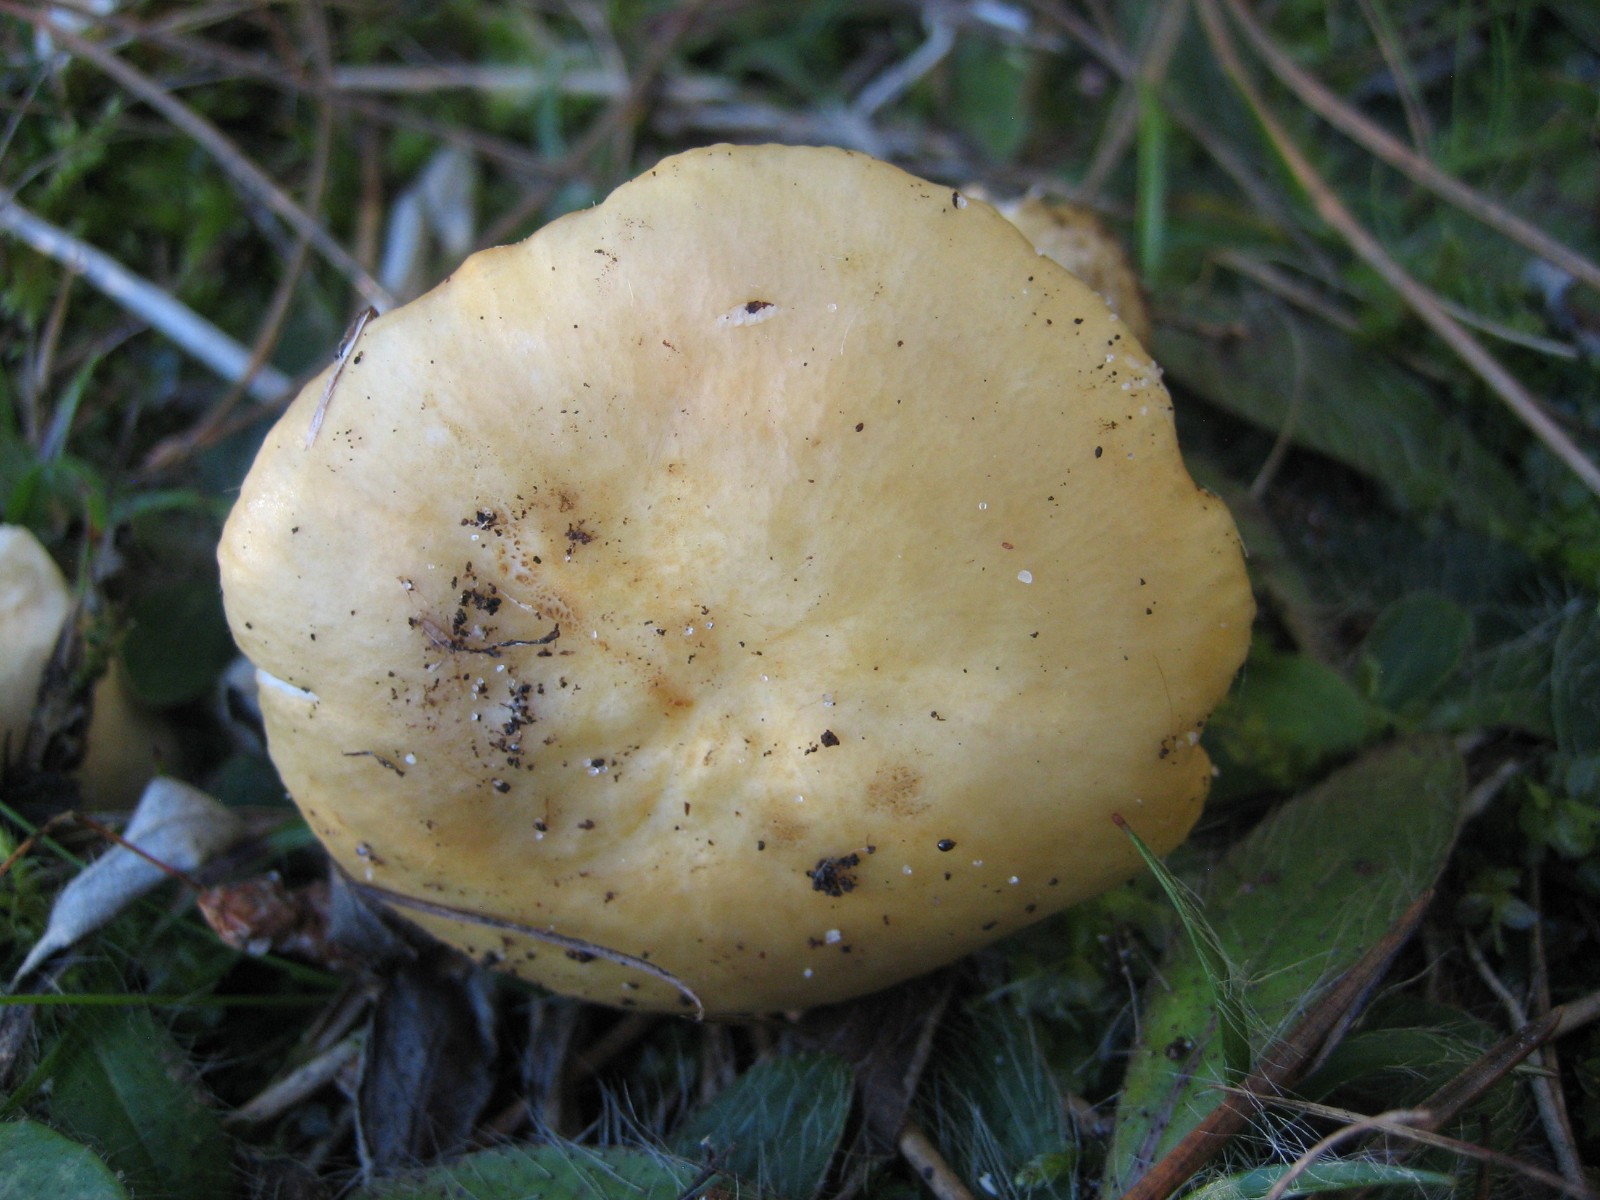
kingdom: Fungi
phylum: Basidiomycota
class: Agaricomycetes
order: Russulales
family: Russulaceae
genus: Russula
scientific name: Russula ochroleuca
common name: okkergul skørhat
